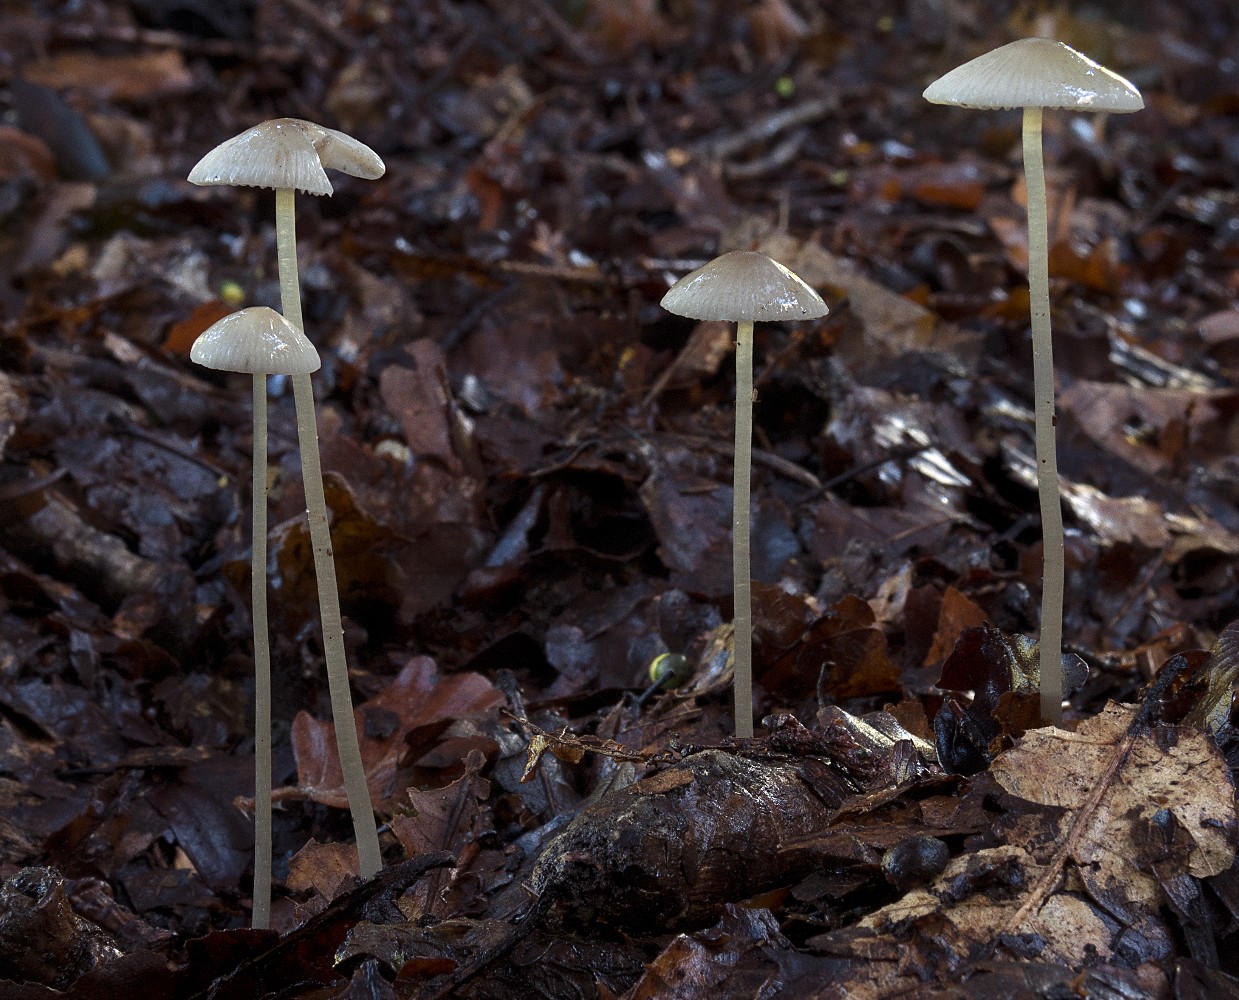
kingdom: Fungi
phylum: Basidiomycota
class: Agaricomycetes
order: Agaricales
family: Mycenaceae
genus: Mycena
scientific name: Mycena vitilis
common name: blankstokket huesvamp
